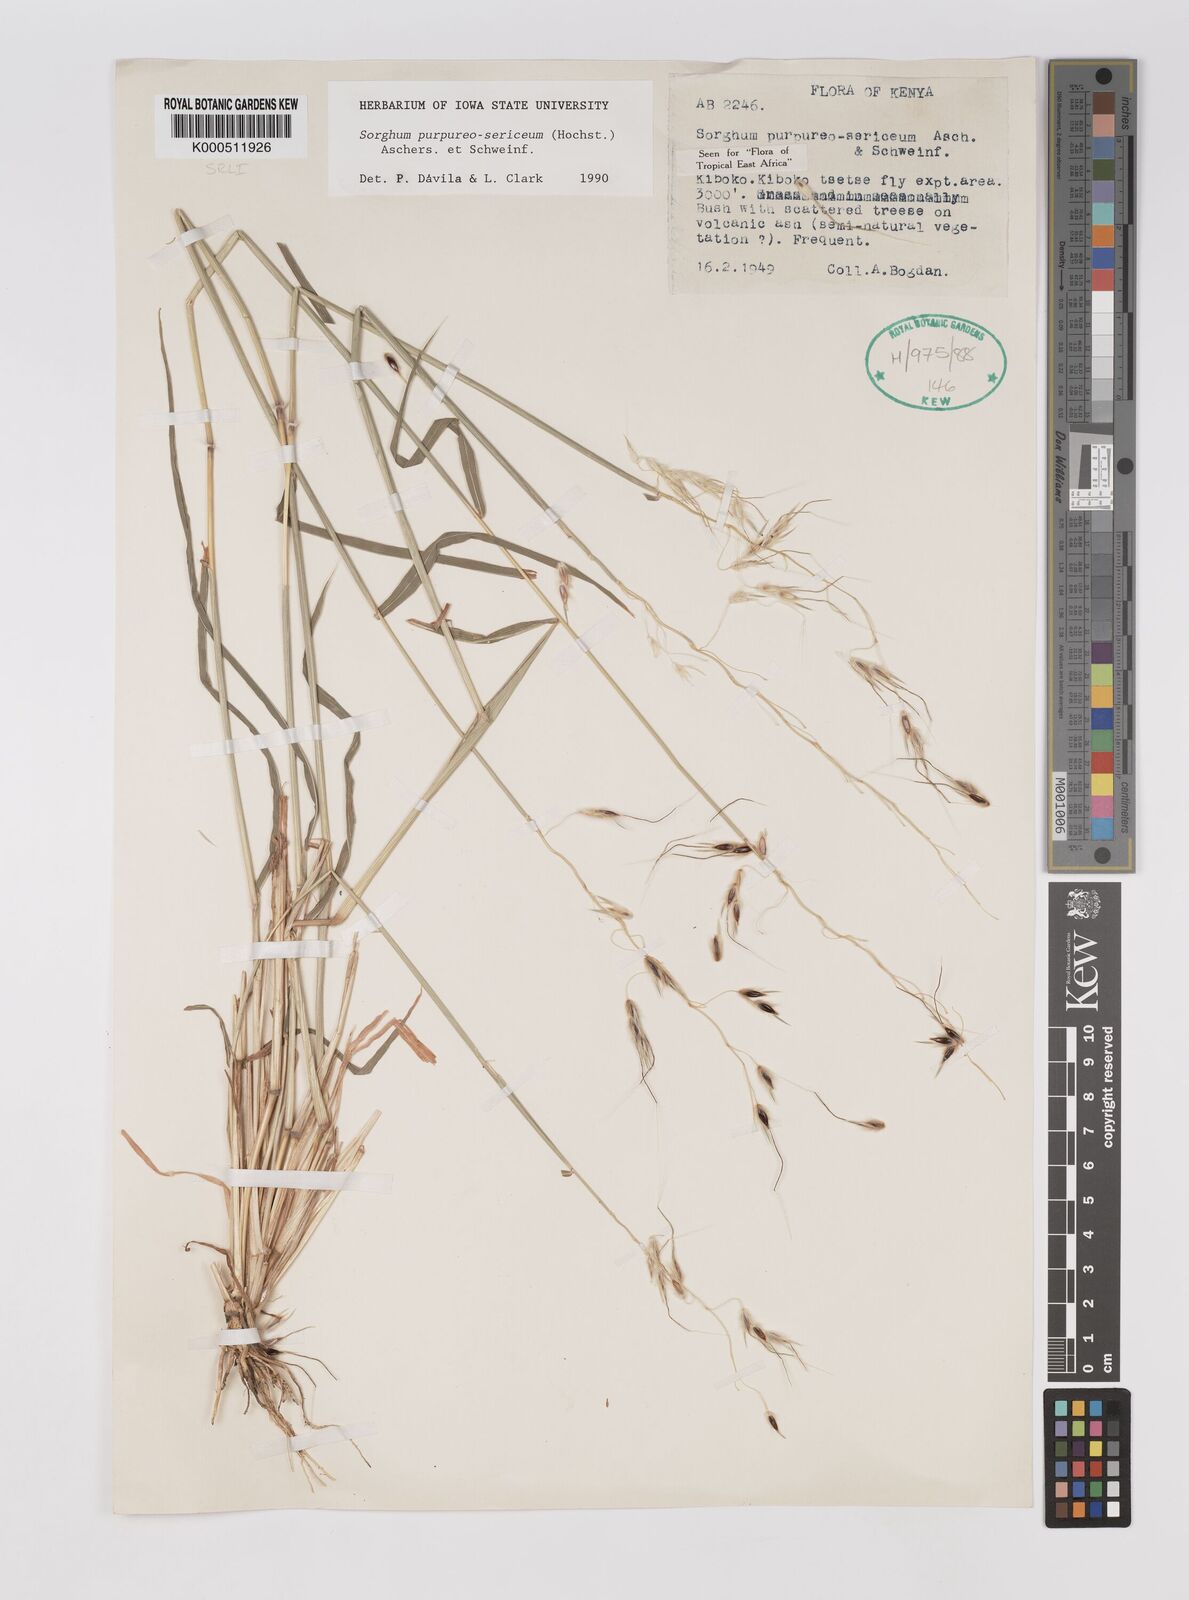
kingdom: Plantae
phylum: Tracheophyta
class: Liliopsida
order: Poales
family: Poaceae
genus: Sarga
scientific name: Sarga purpureosericea
